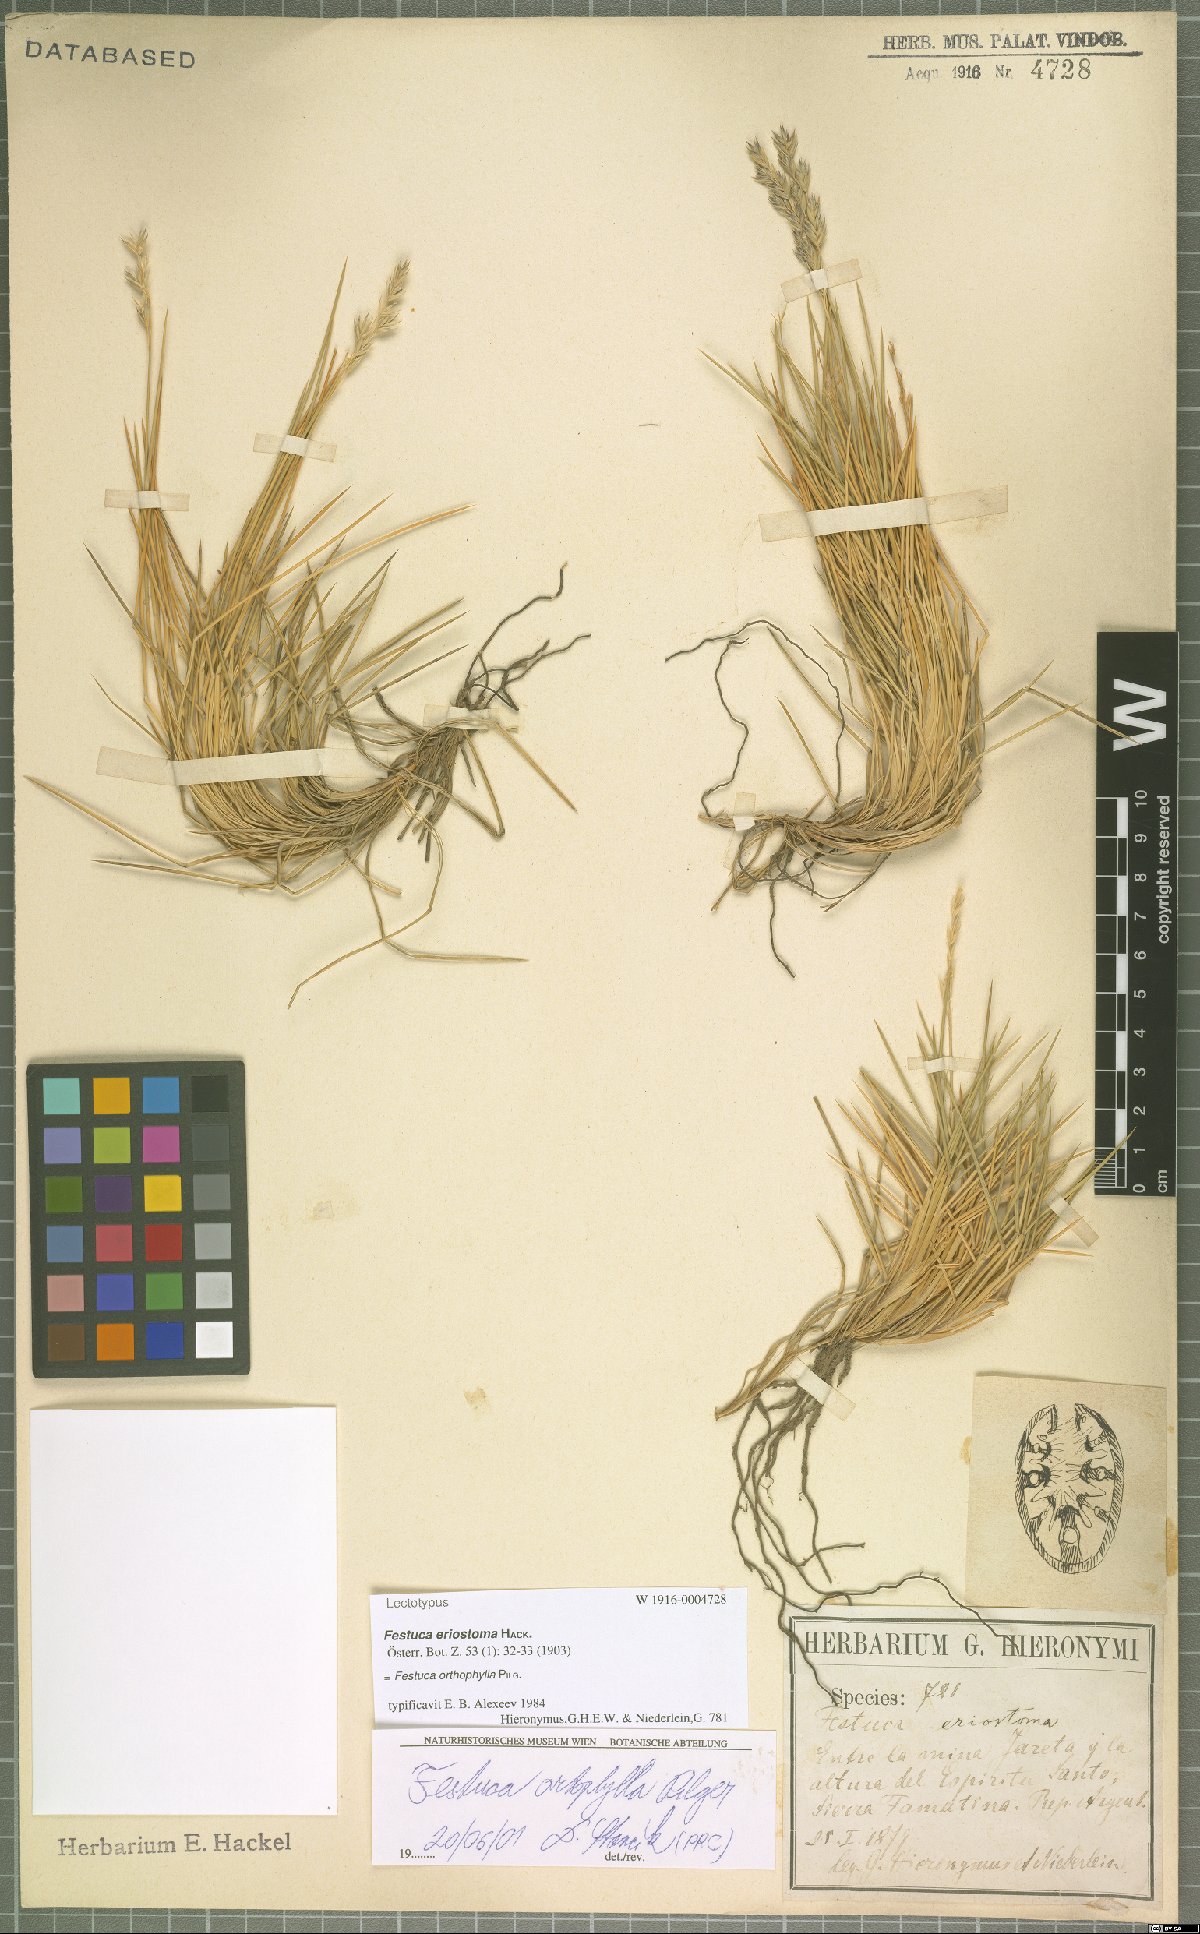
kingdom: Plantae
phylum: Tracheophyta
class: Liliopsida
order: Poales
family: Poaceae
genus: Festuca
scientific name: Festuca chrysophylla
